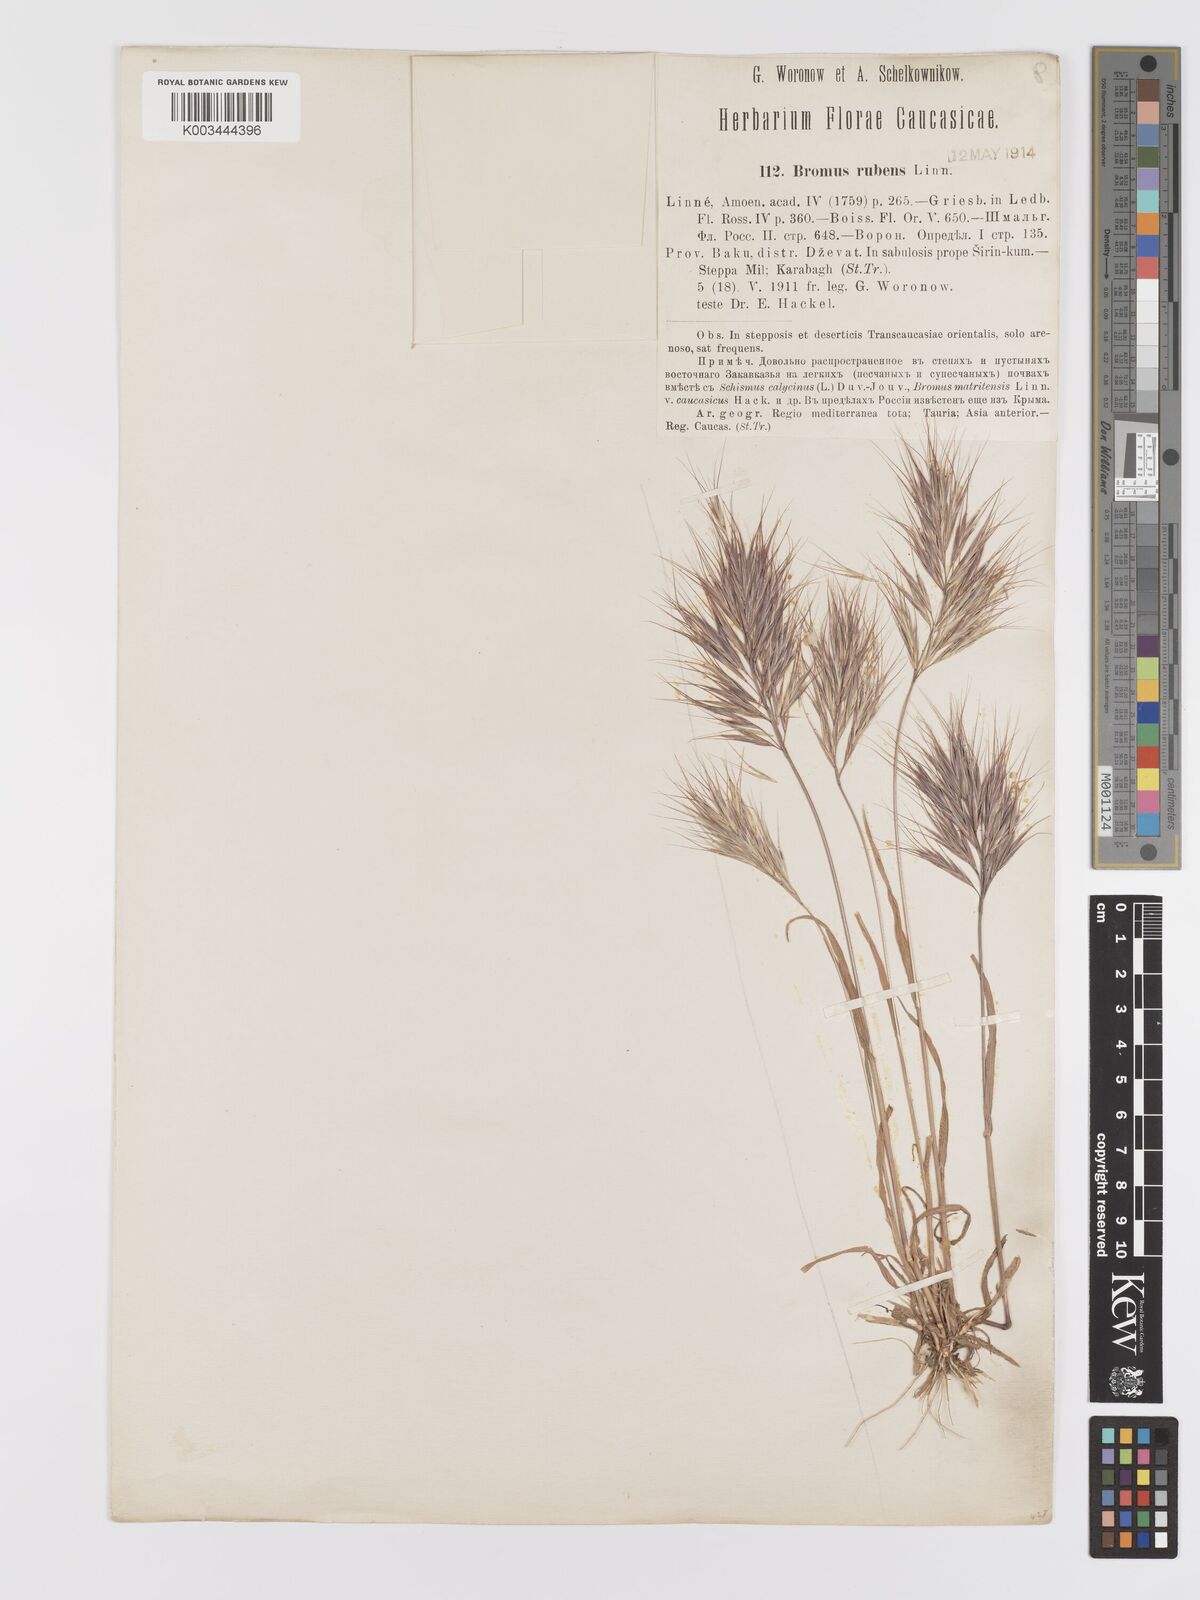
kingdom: Plantae
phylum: Tracheophyta
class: Liliopsida
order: Poales
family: Poaceae
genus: Bromus
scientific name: Bromus rubens
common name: Red brome
